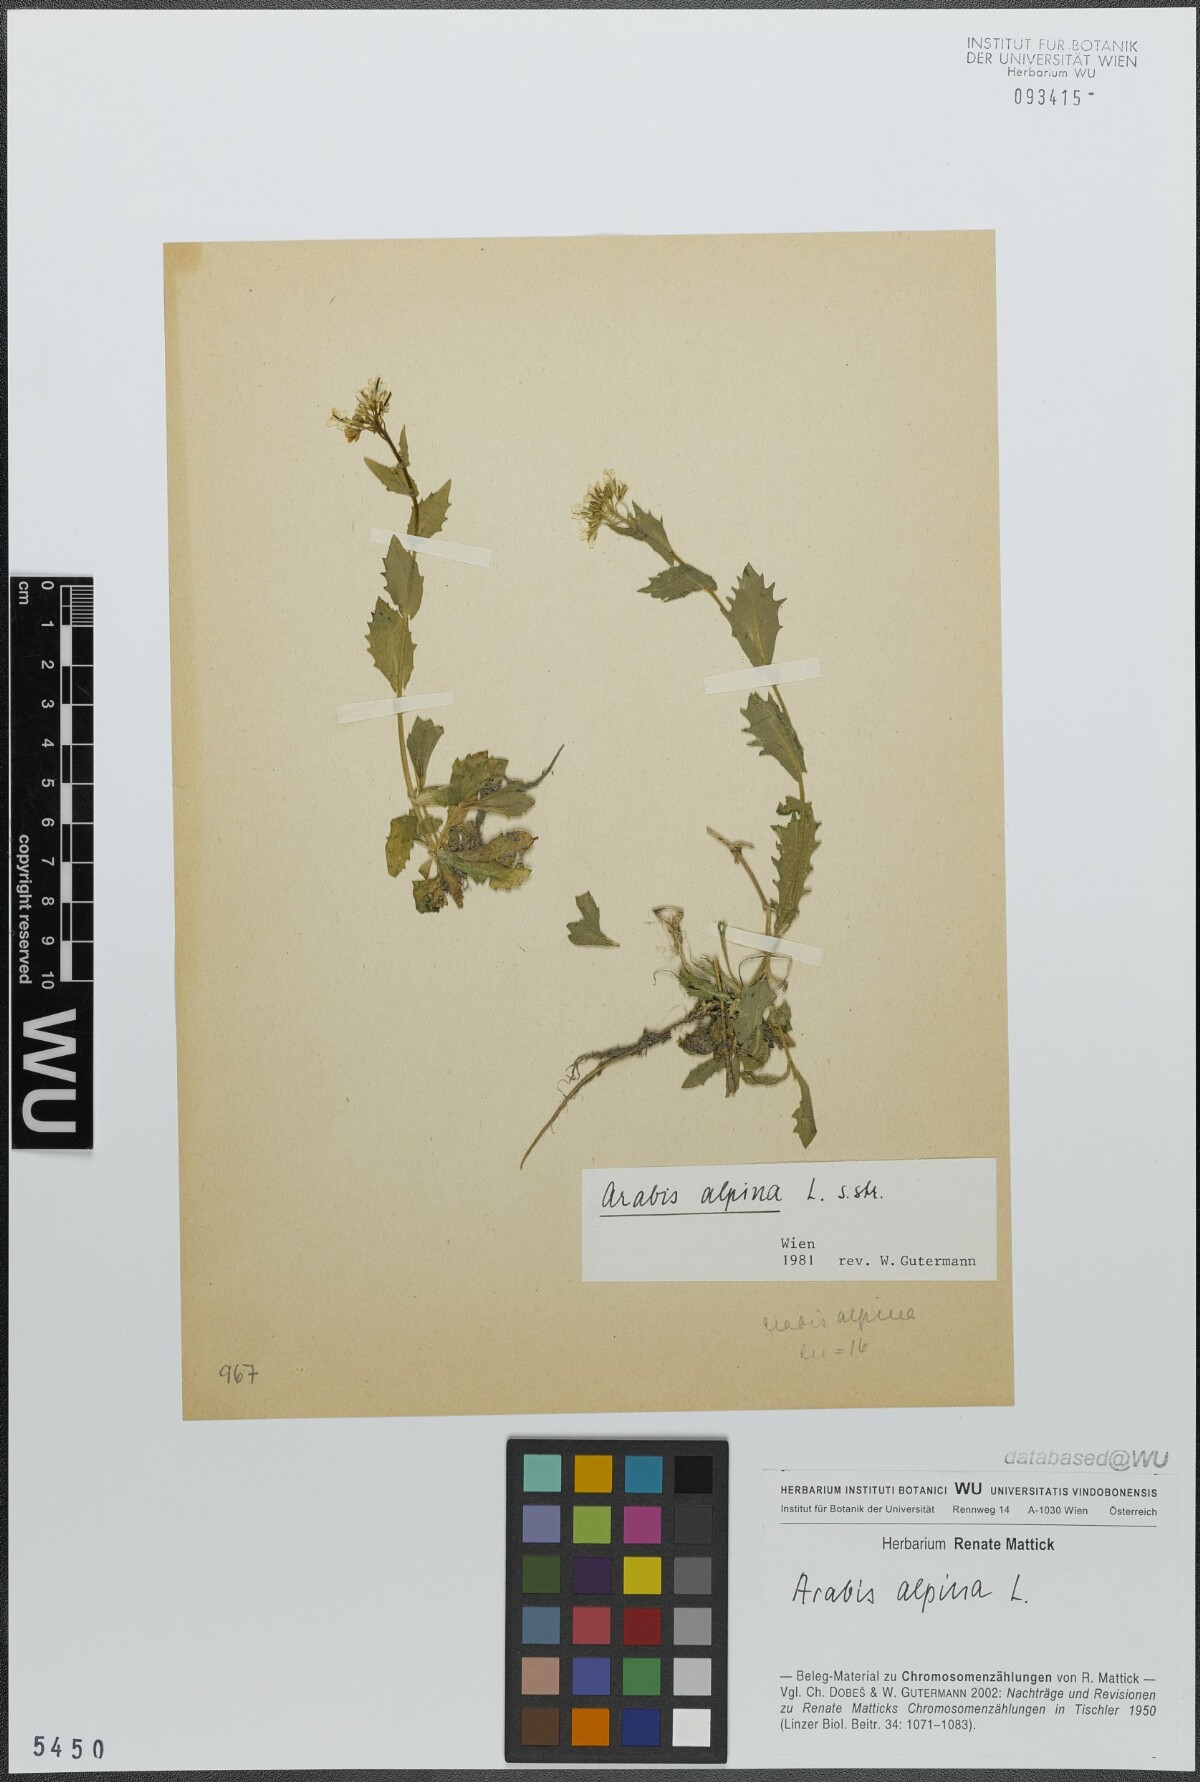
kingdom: Plantae
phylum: Tracheophyta
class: Magnoliopsida
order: Brassicales
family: Brassicaceae
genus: Arabis
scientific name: Arabis alpina
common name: Alpine rock-cress
